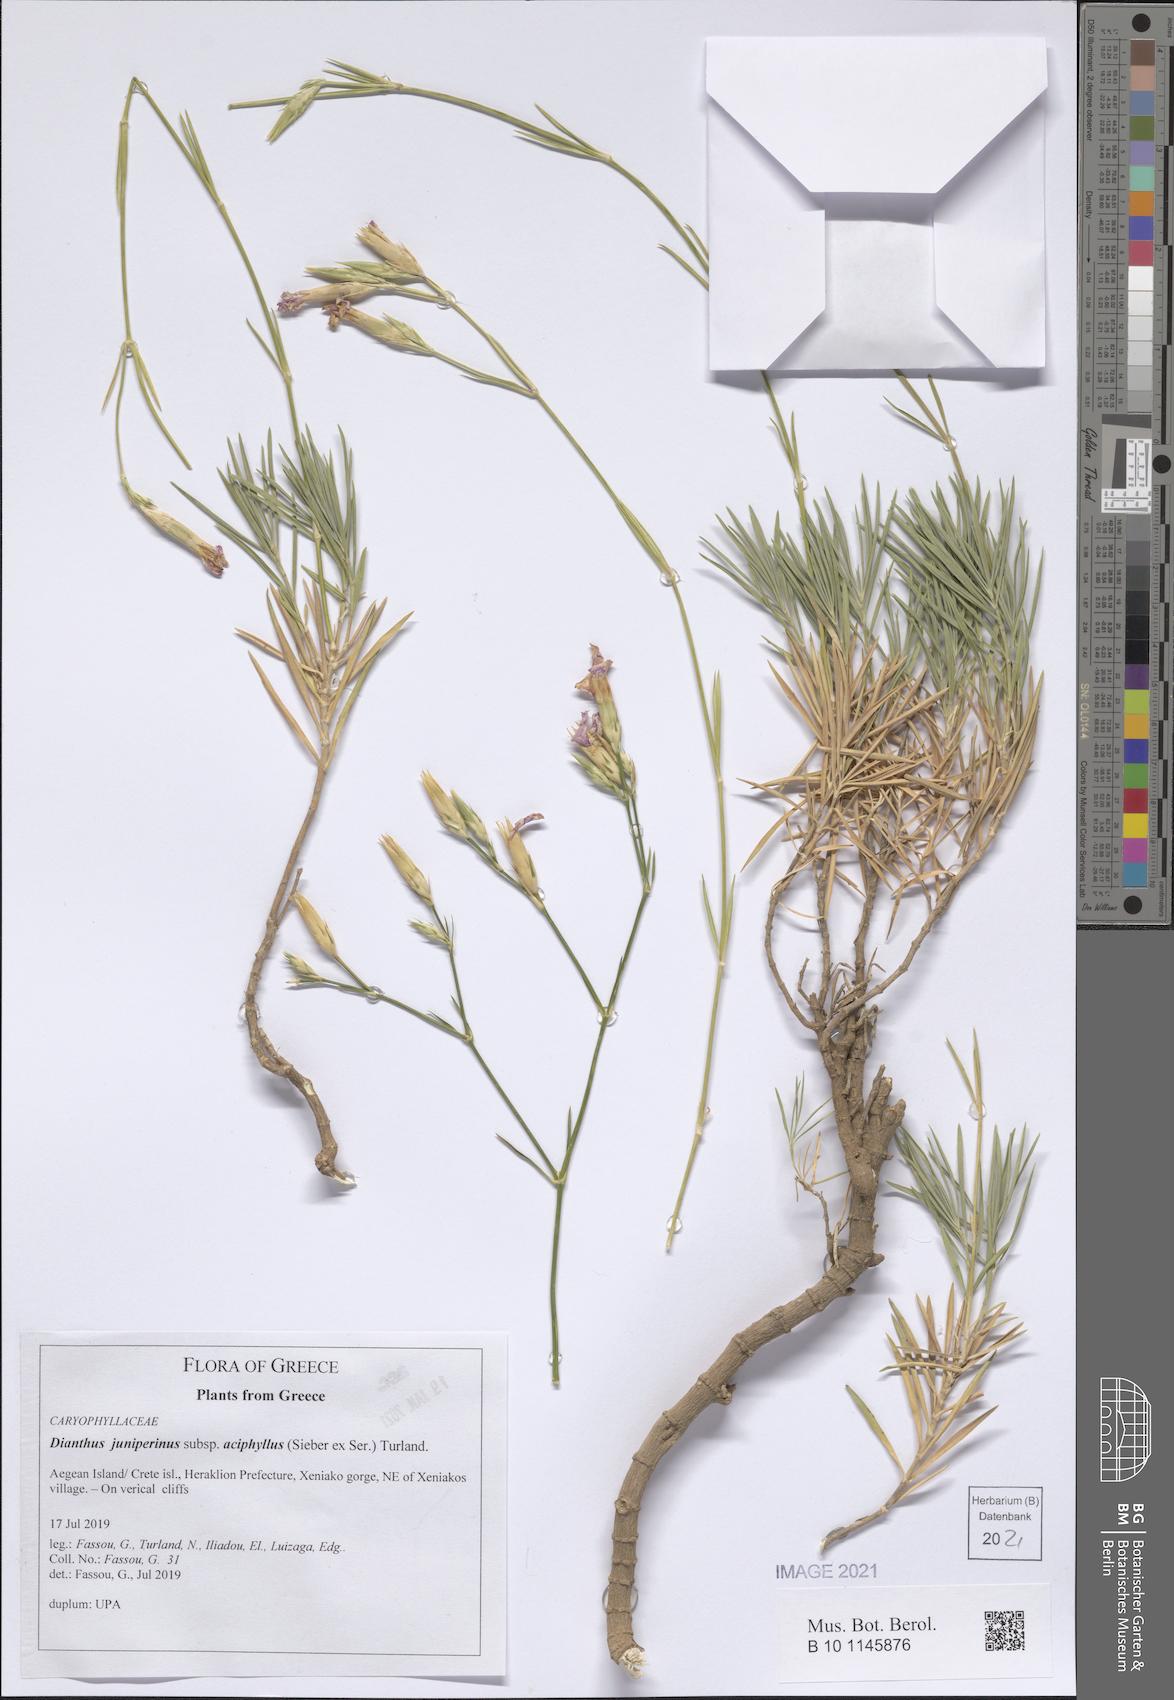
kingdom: Plantae
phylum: Tracheophyta
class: Magnoliopsida
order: Caryophyllales
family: Caryophyllaceae
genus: Dianthus
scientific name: Dianthus juniperinus
